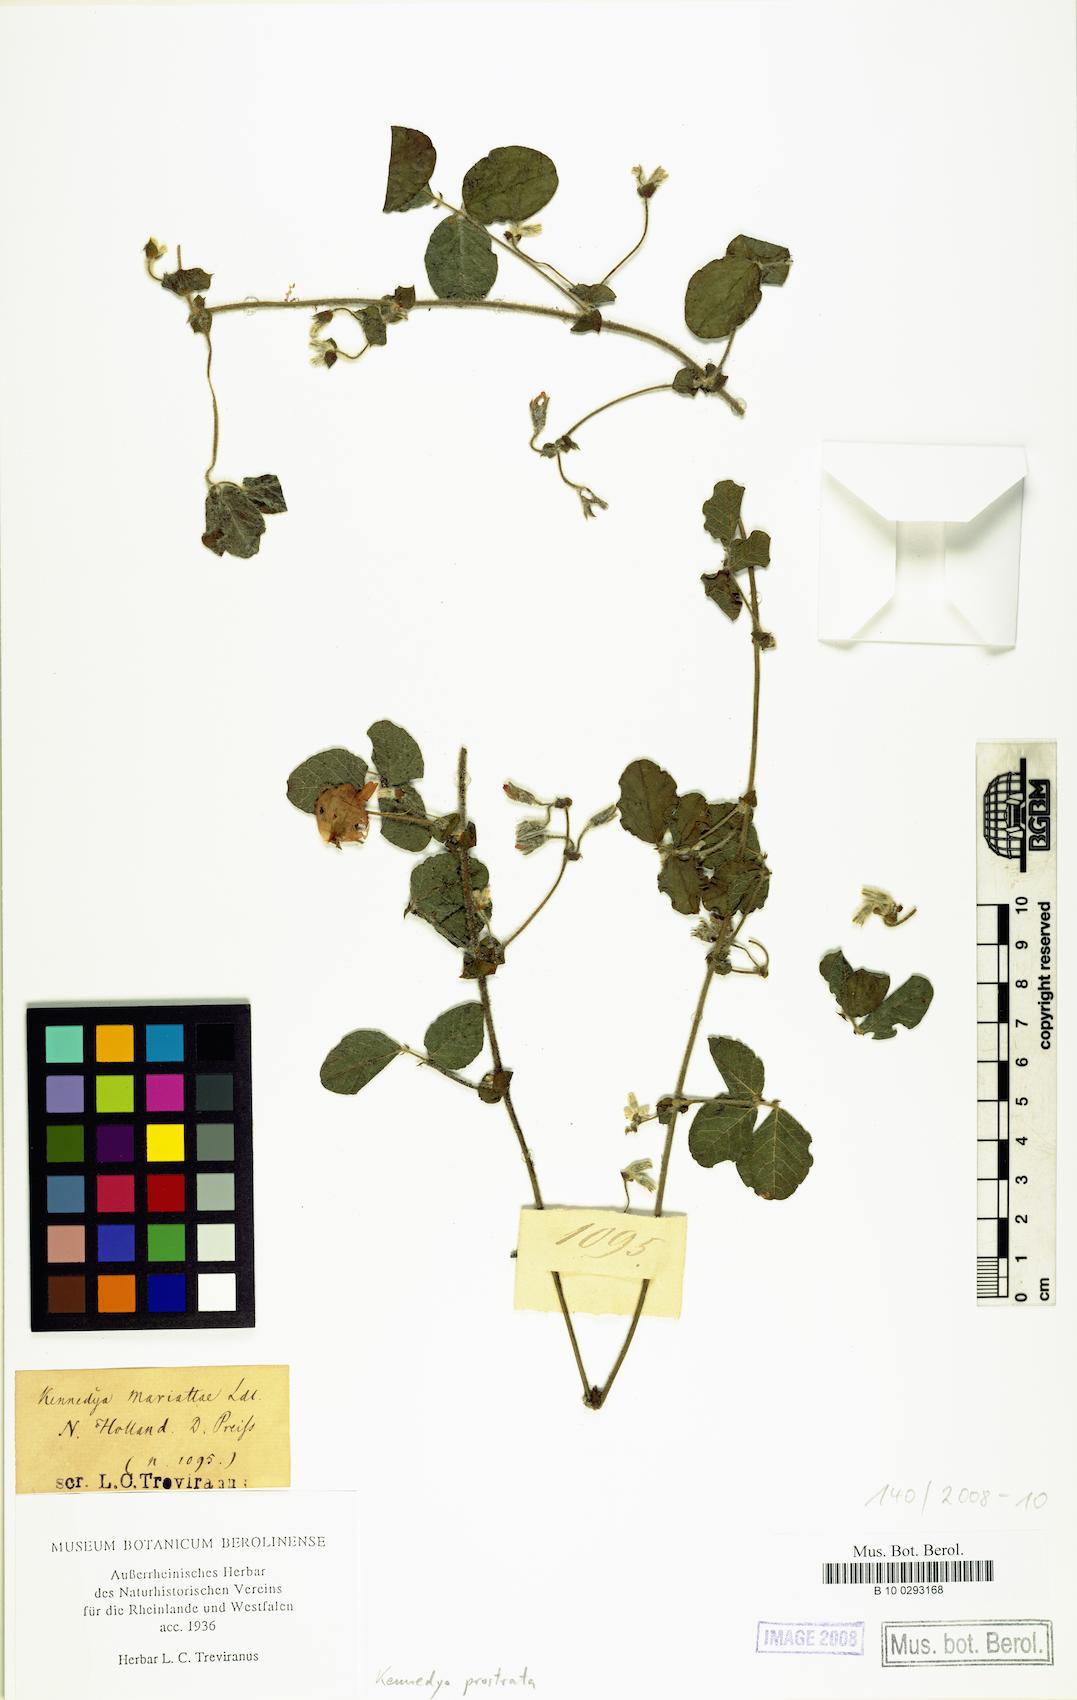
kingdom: Plantae
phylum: Tracheophyta
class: Magnoliopsida
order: Fabales
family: Fabaceae
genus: Kennedia
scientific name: Kennedia prostrata
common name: Running-postman
